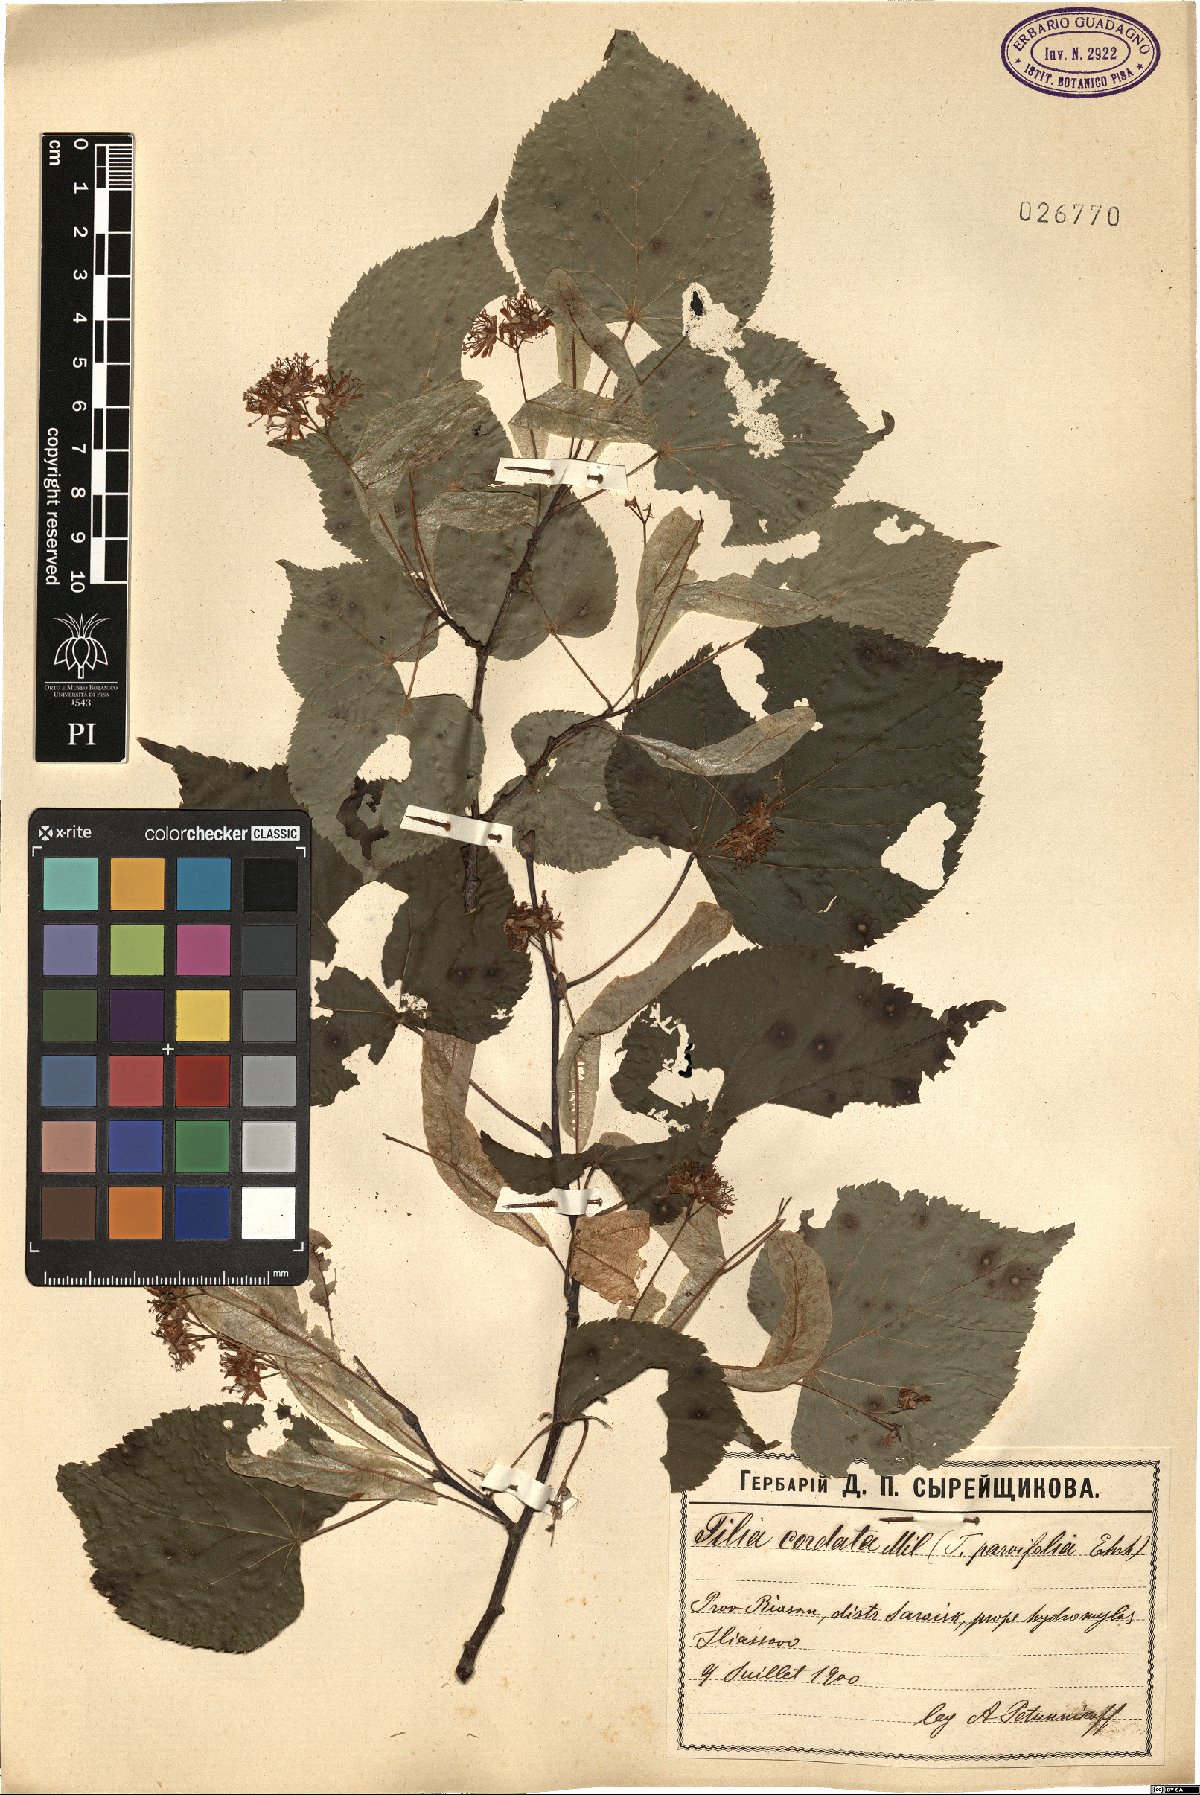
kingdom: Plantae
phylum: Tracheophyta
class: Magnoliopsida
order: Malvales
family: Malvaceae
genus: Tilia
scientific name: Tilia cordata
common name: Small-leaved lime
